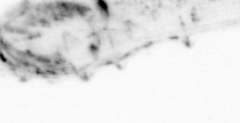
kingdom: Animalia
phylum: Chaetognatha
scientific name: Chaetognatha
